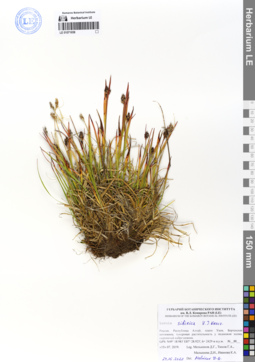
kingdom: Plantae
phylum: Tracheophyta
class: Liliopsida
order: Poales
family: Juncaceae
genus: Luzula
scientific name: Luzula multiflora
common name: Heath wood-rush
